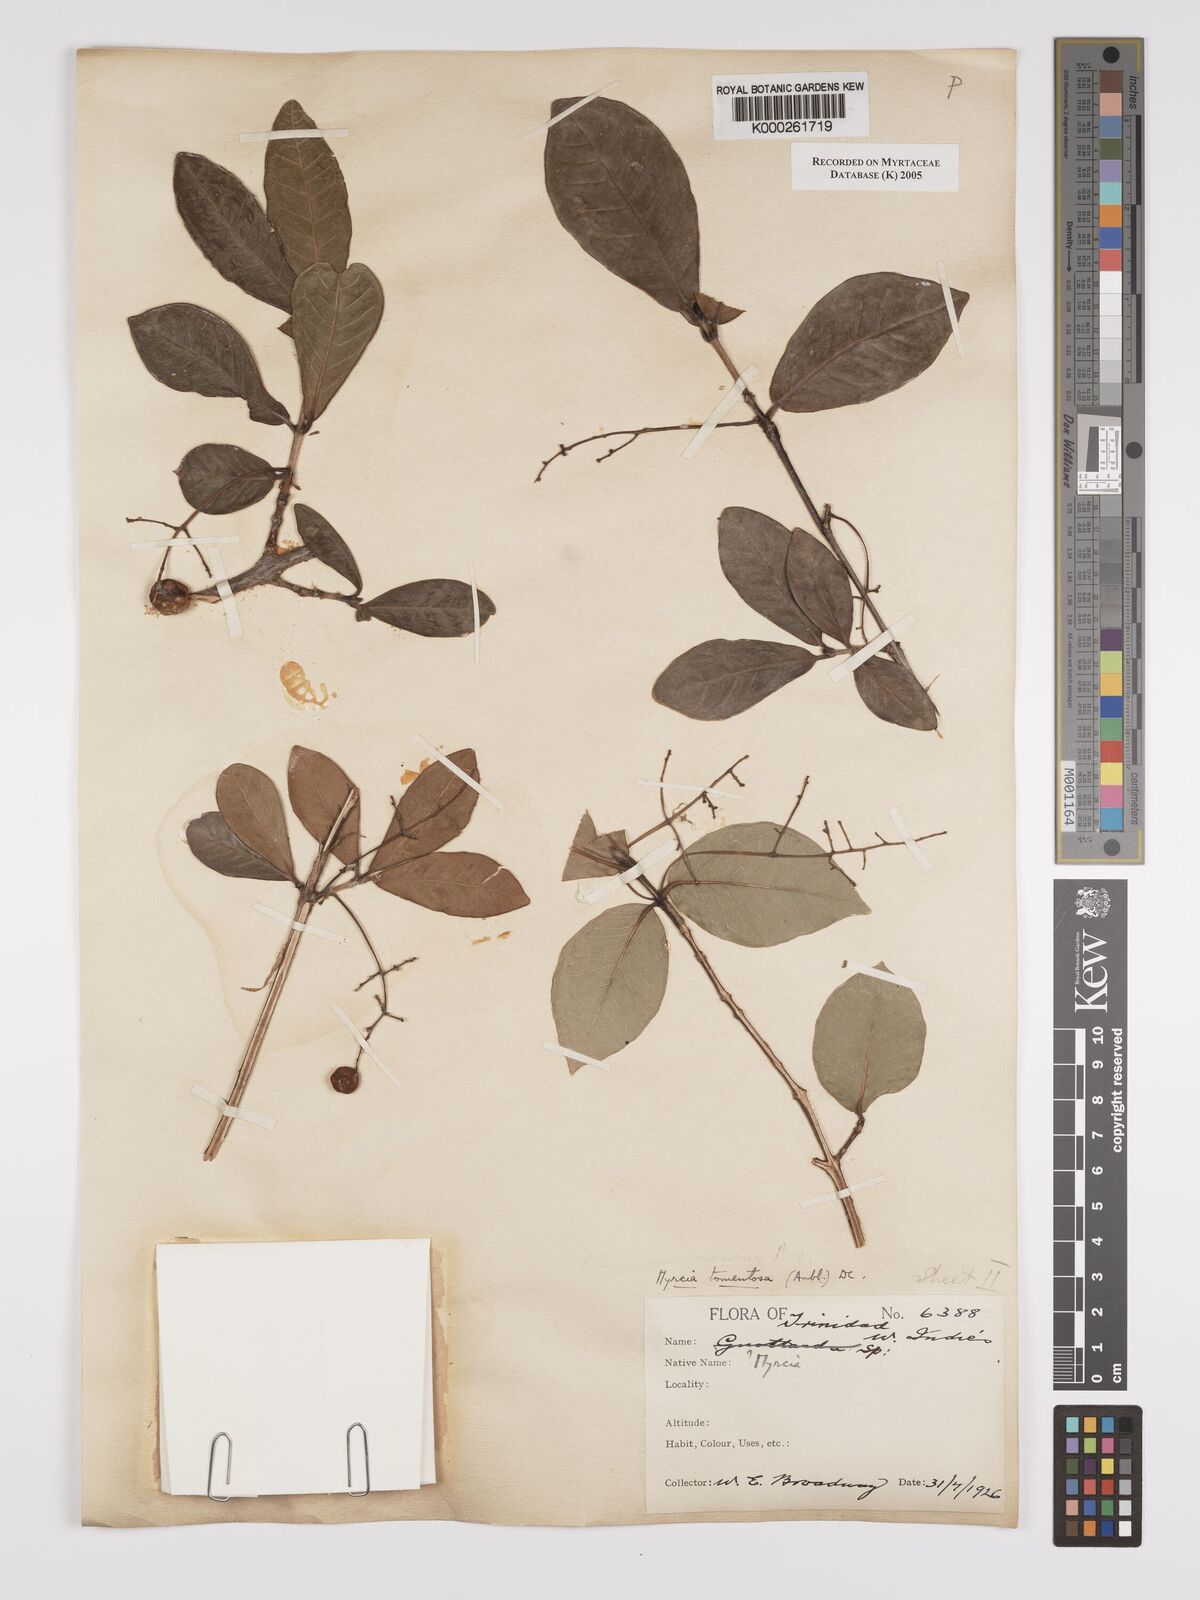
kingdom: Plantae
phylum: Tracheophyta
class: Magnoliopsida
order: Myrtales
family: Myrtaceae
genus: Myrcia
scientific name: Myrcia tomentosa
